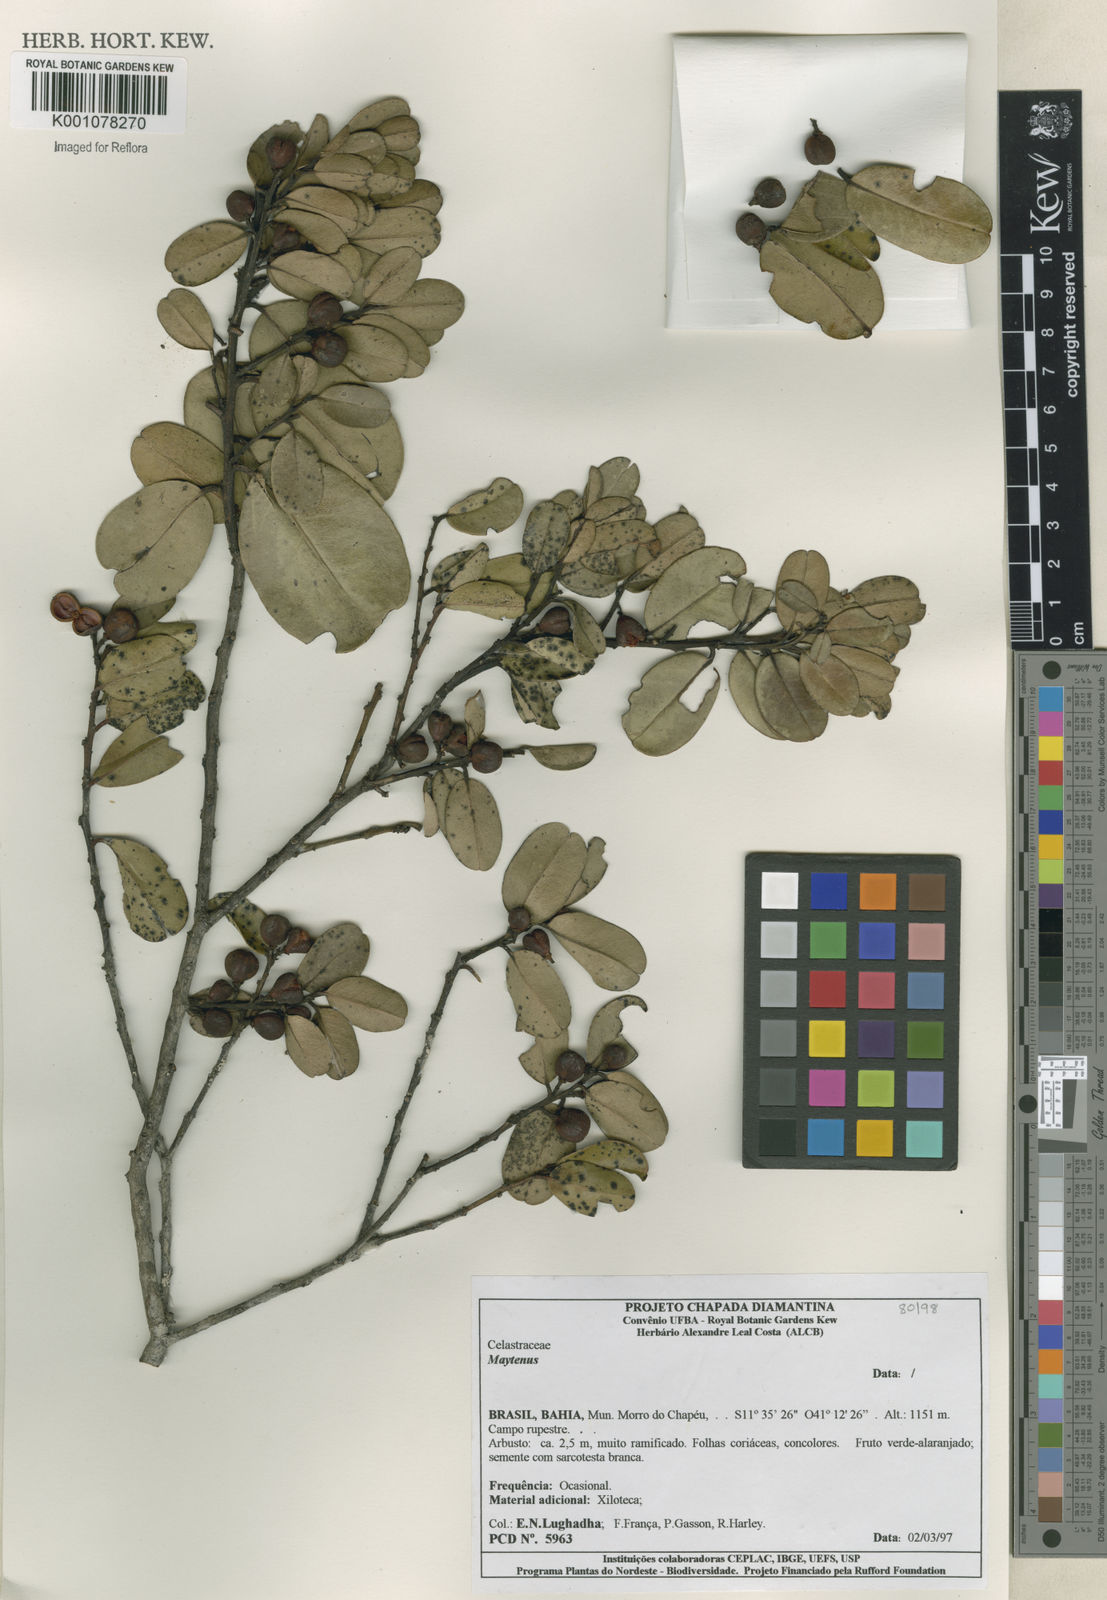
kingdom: Plantae
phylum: Tracheophyta
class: Magnoliopsida
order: Celastrales
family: Celastraceae
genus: Maytenus
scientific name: Maytenus
